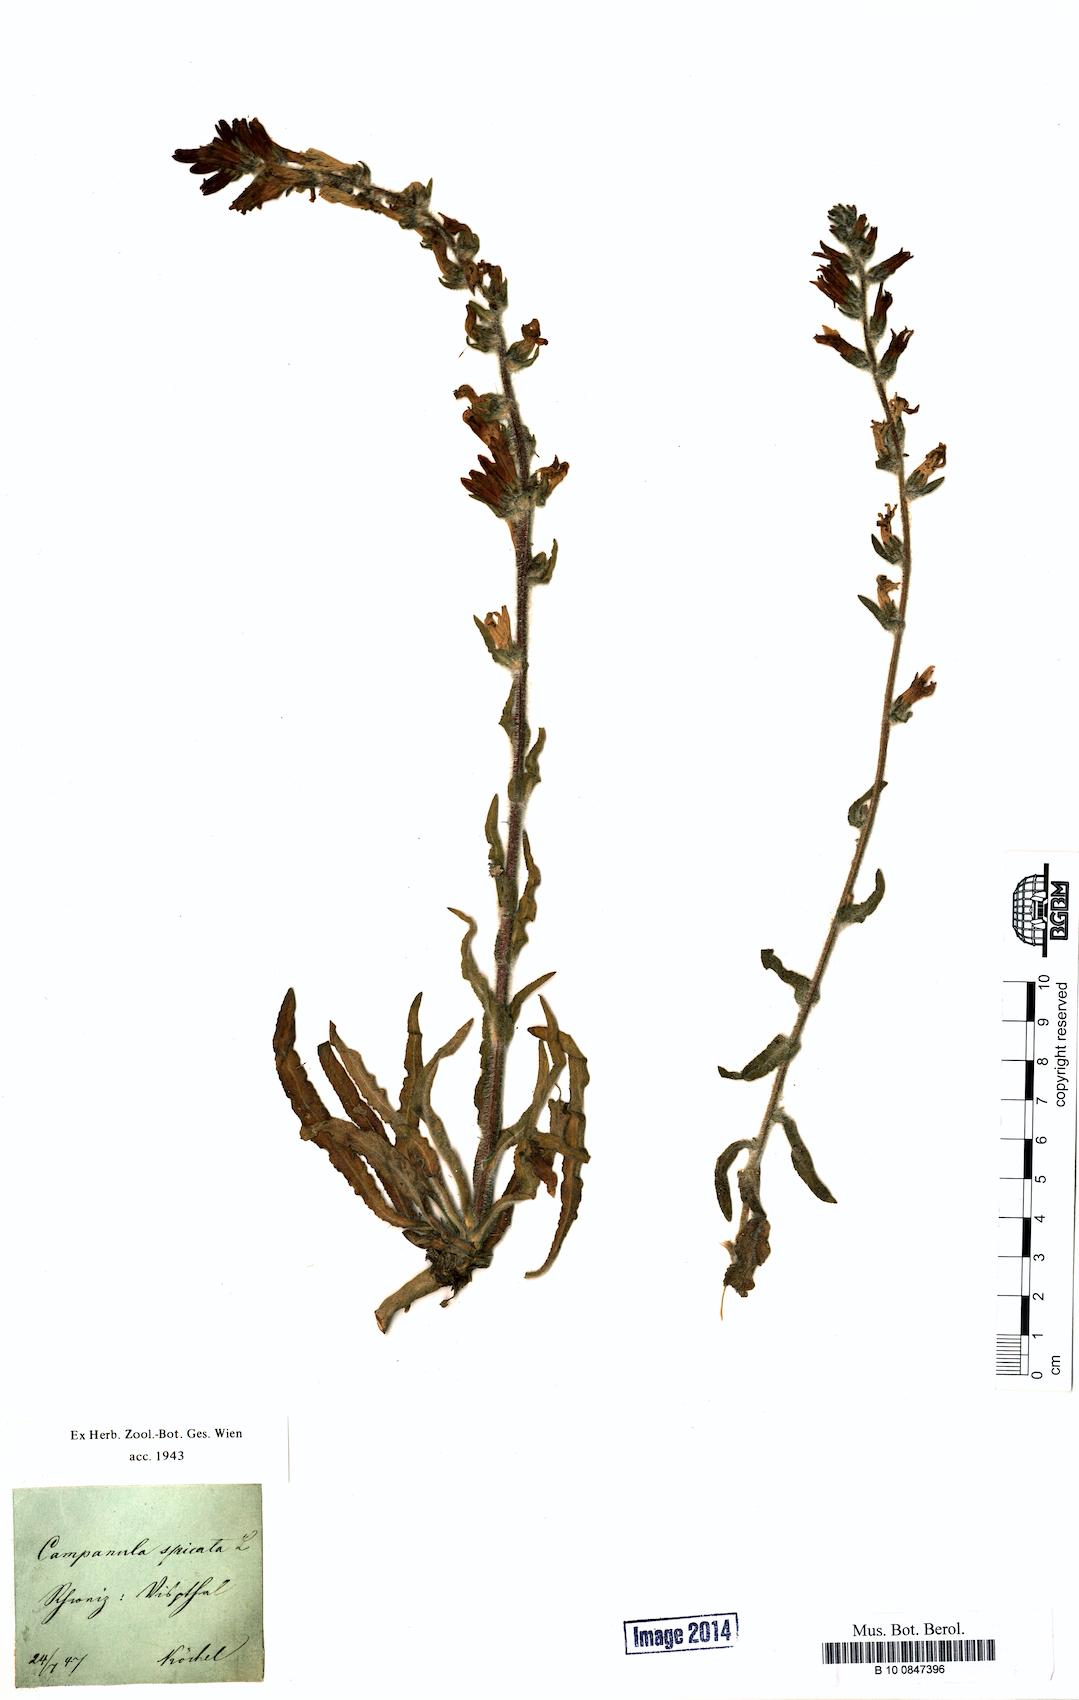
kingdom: Plantae
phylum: Tracheophyta
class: Magnoliopsida
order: Asterales
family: Campanulaceae
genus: Campanula
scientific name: Campanula spicata
